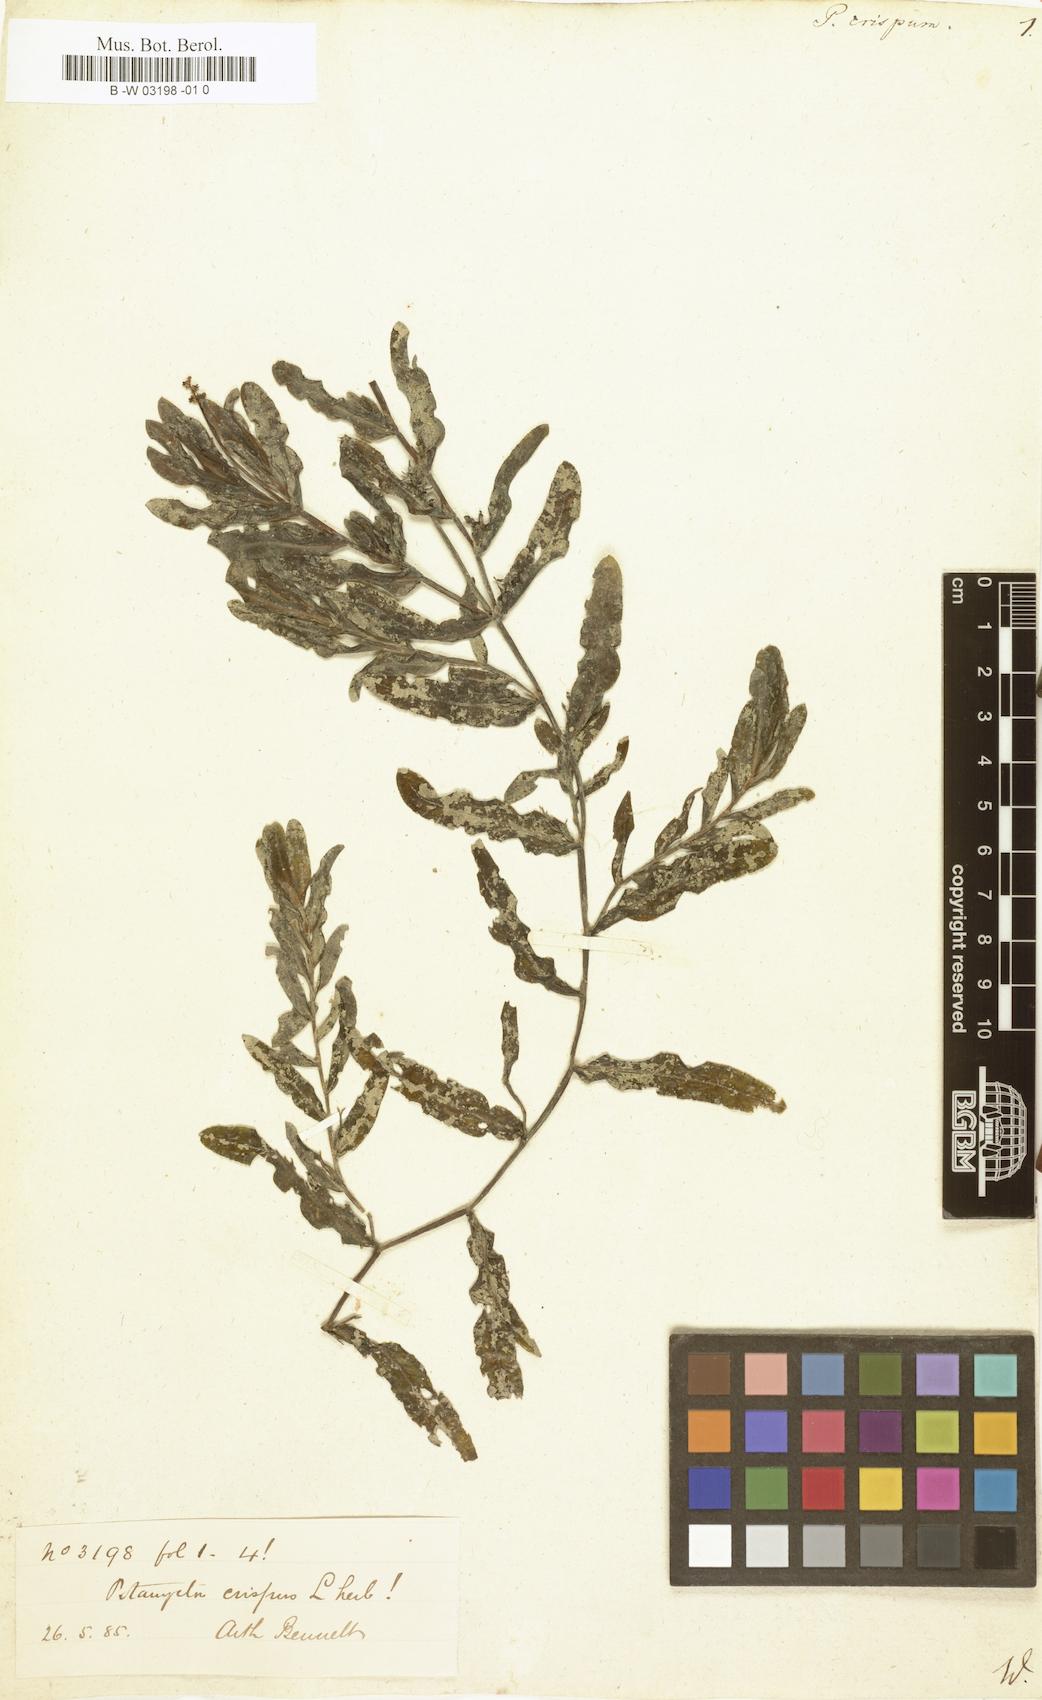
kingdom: Plantae
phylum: Tracheophyta
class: Liliopsida
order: Alismatales
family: Potamogetonaceae
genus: Potamogeton
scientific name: Potamogeton crispus
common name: Curled pondweed
